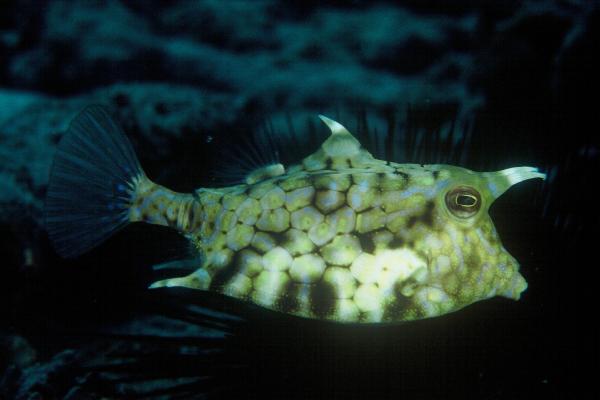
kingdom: Animalia
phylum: Chordata
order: Tetraodontiformes
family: Ostraciidae
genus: Lactoria
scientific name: Lactoria fornasini
